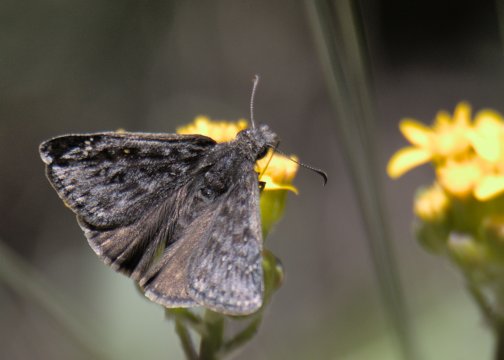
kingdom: Animalia
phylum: Arthropoda
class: Insecta
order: Lepidoptera
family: Hesperiidae
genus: Erynnis
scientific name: Erynnis telemachus
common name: Rocky Mountain Duskywing
